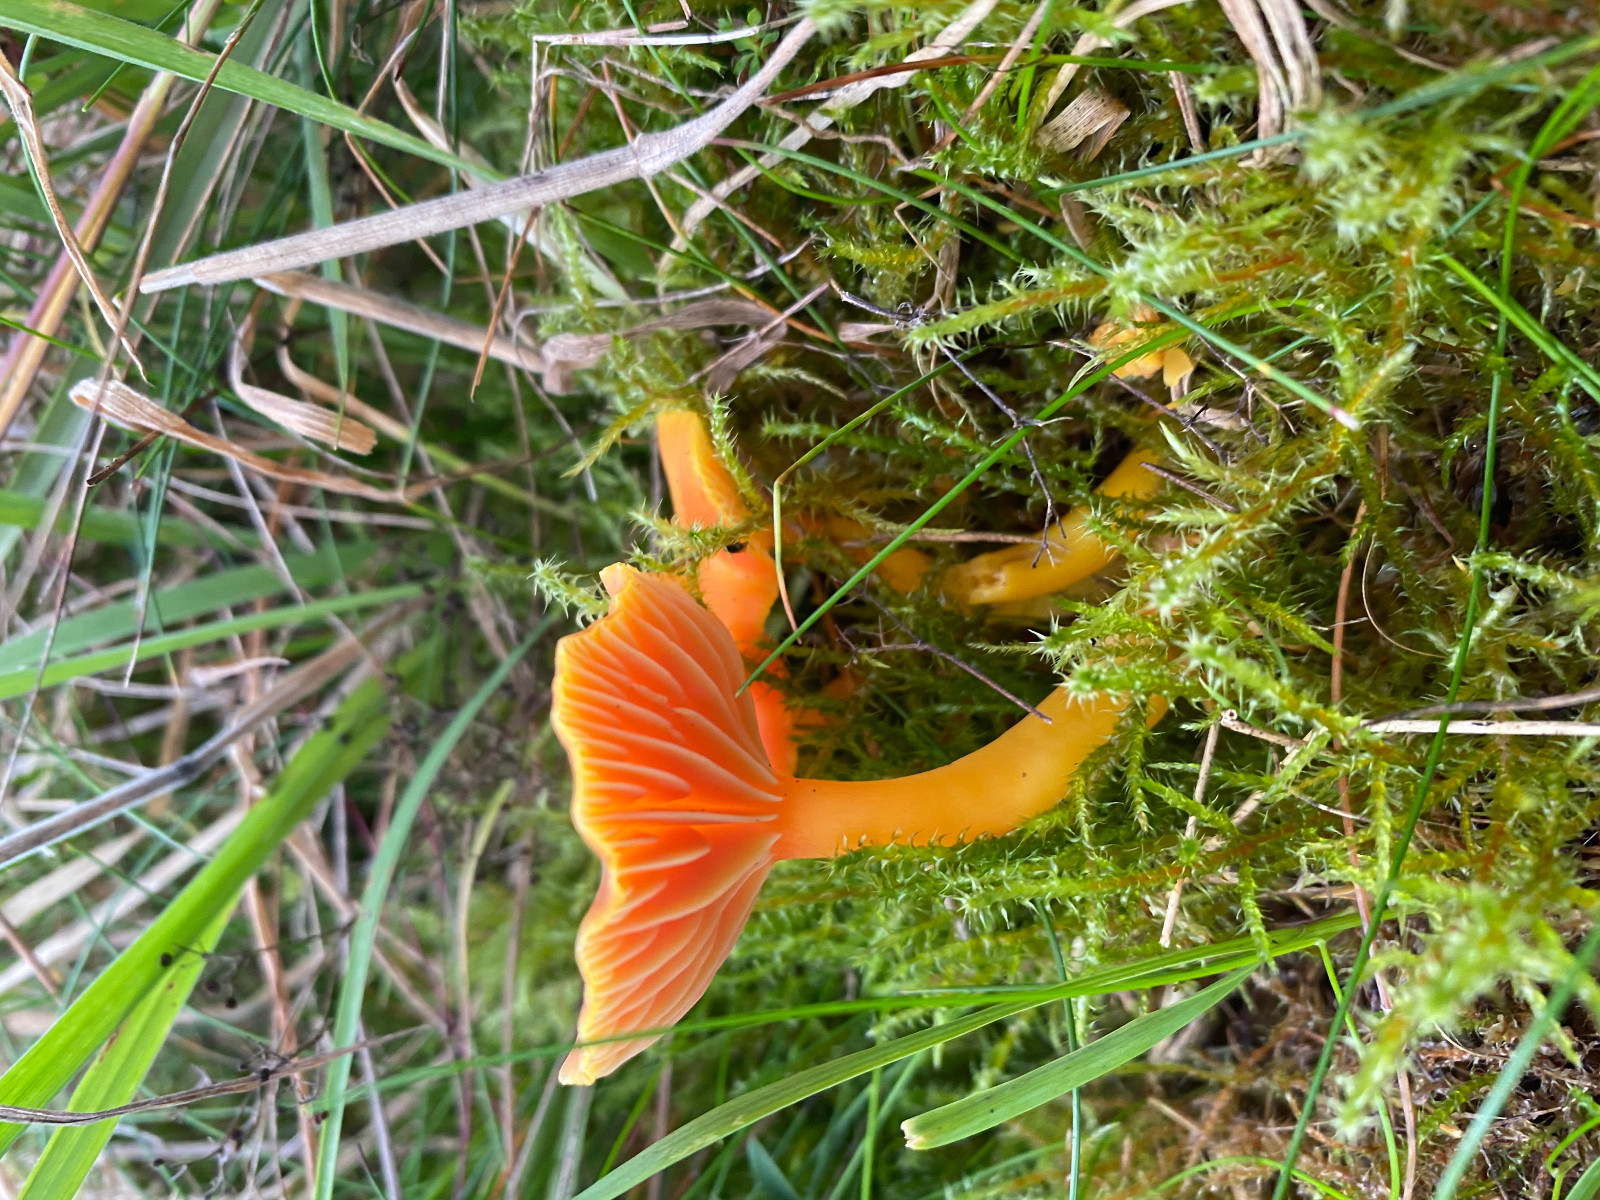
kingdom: Fungi
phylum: Basidiomycota
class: Agaricomycetes
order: Agaricales
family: Hygrophoraceae
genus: Hygrocybe
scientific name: Hygrocybe reidii
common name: honning-vokshat
